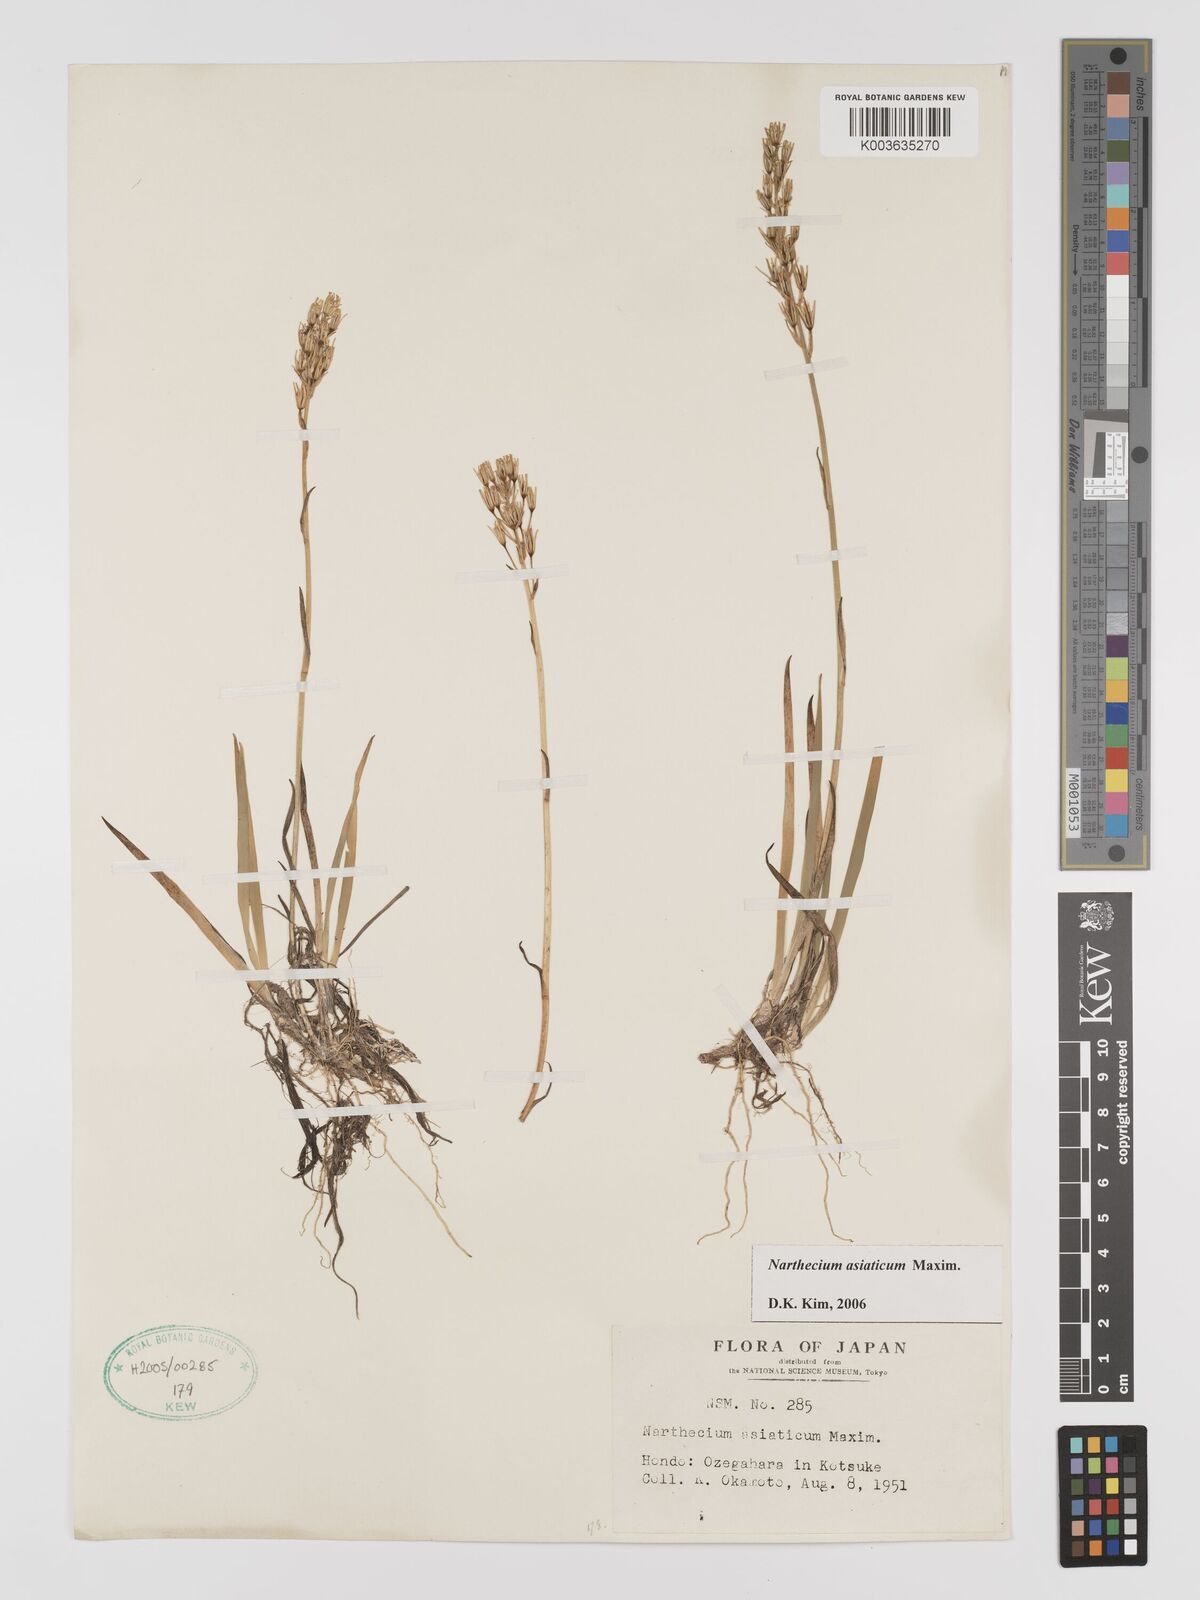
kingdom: Plantae
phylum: Tracheophyta
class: Liliopsida
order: Dioscoreales
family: Nartheciaceae
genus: Narthecium
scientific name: Narthecium asiaticum
